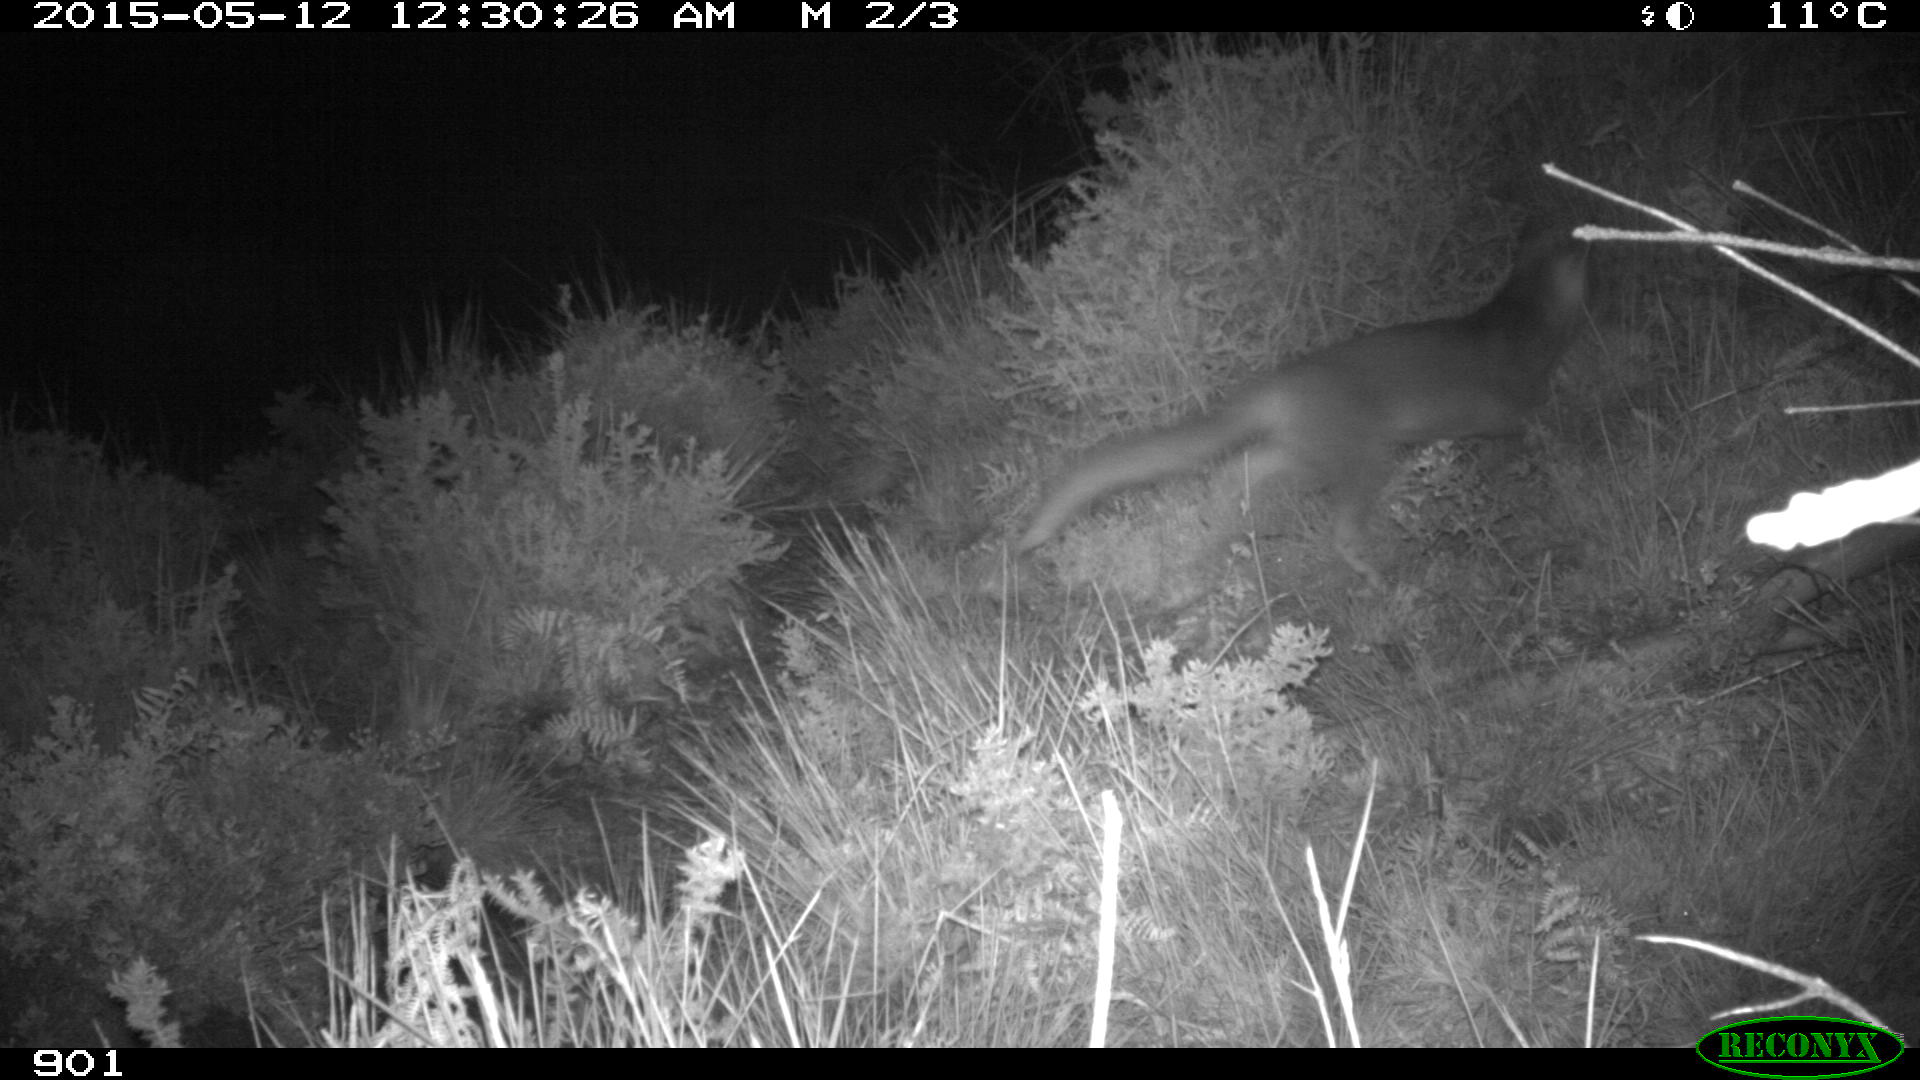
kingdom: Animalia
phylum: Chordata
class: Mammalia
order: Carnivora
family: Canidae
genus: Vulpes
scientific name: Vulpes vulpes
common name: Red fox
